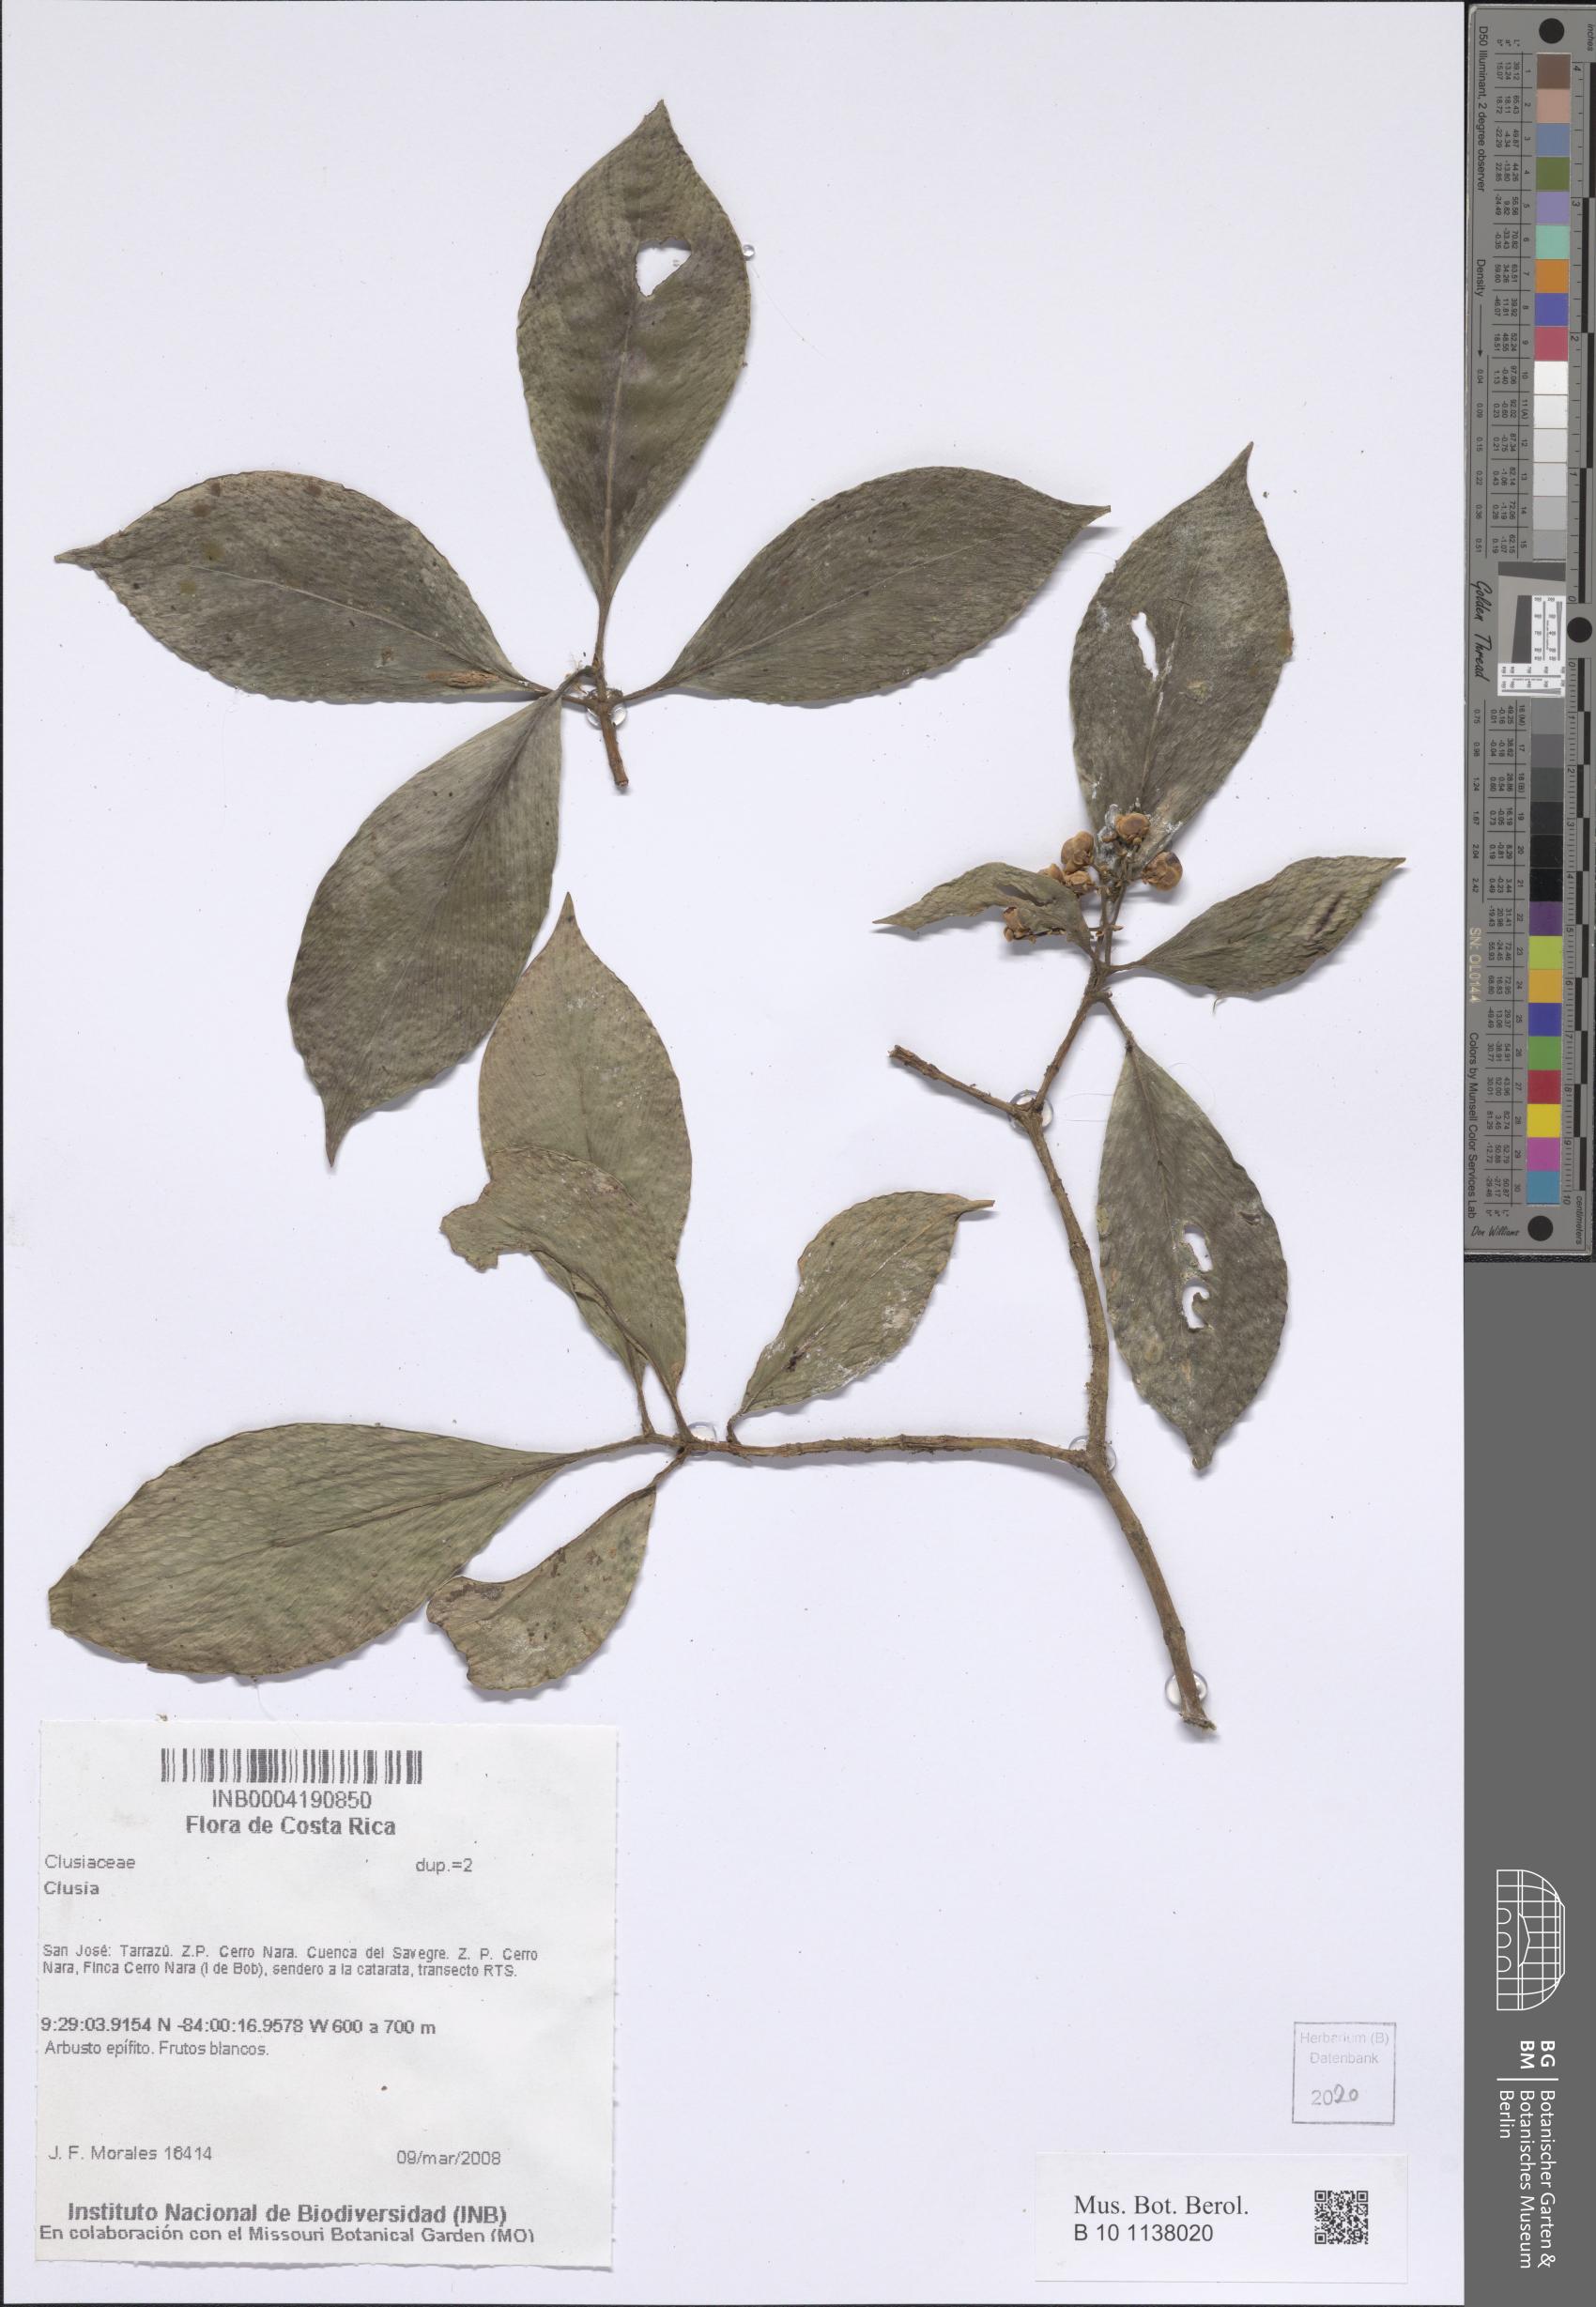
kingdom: Plantae
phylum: Tracheophyta
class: Magnoliopsida
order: Malpighiales
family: Clusiaceae
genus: Clusia
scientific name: Clusia
